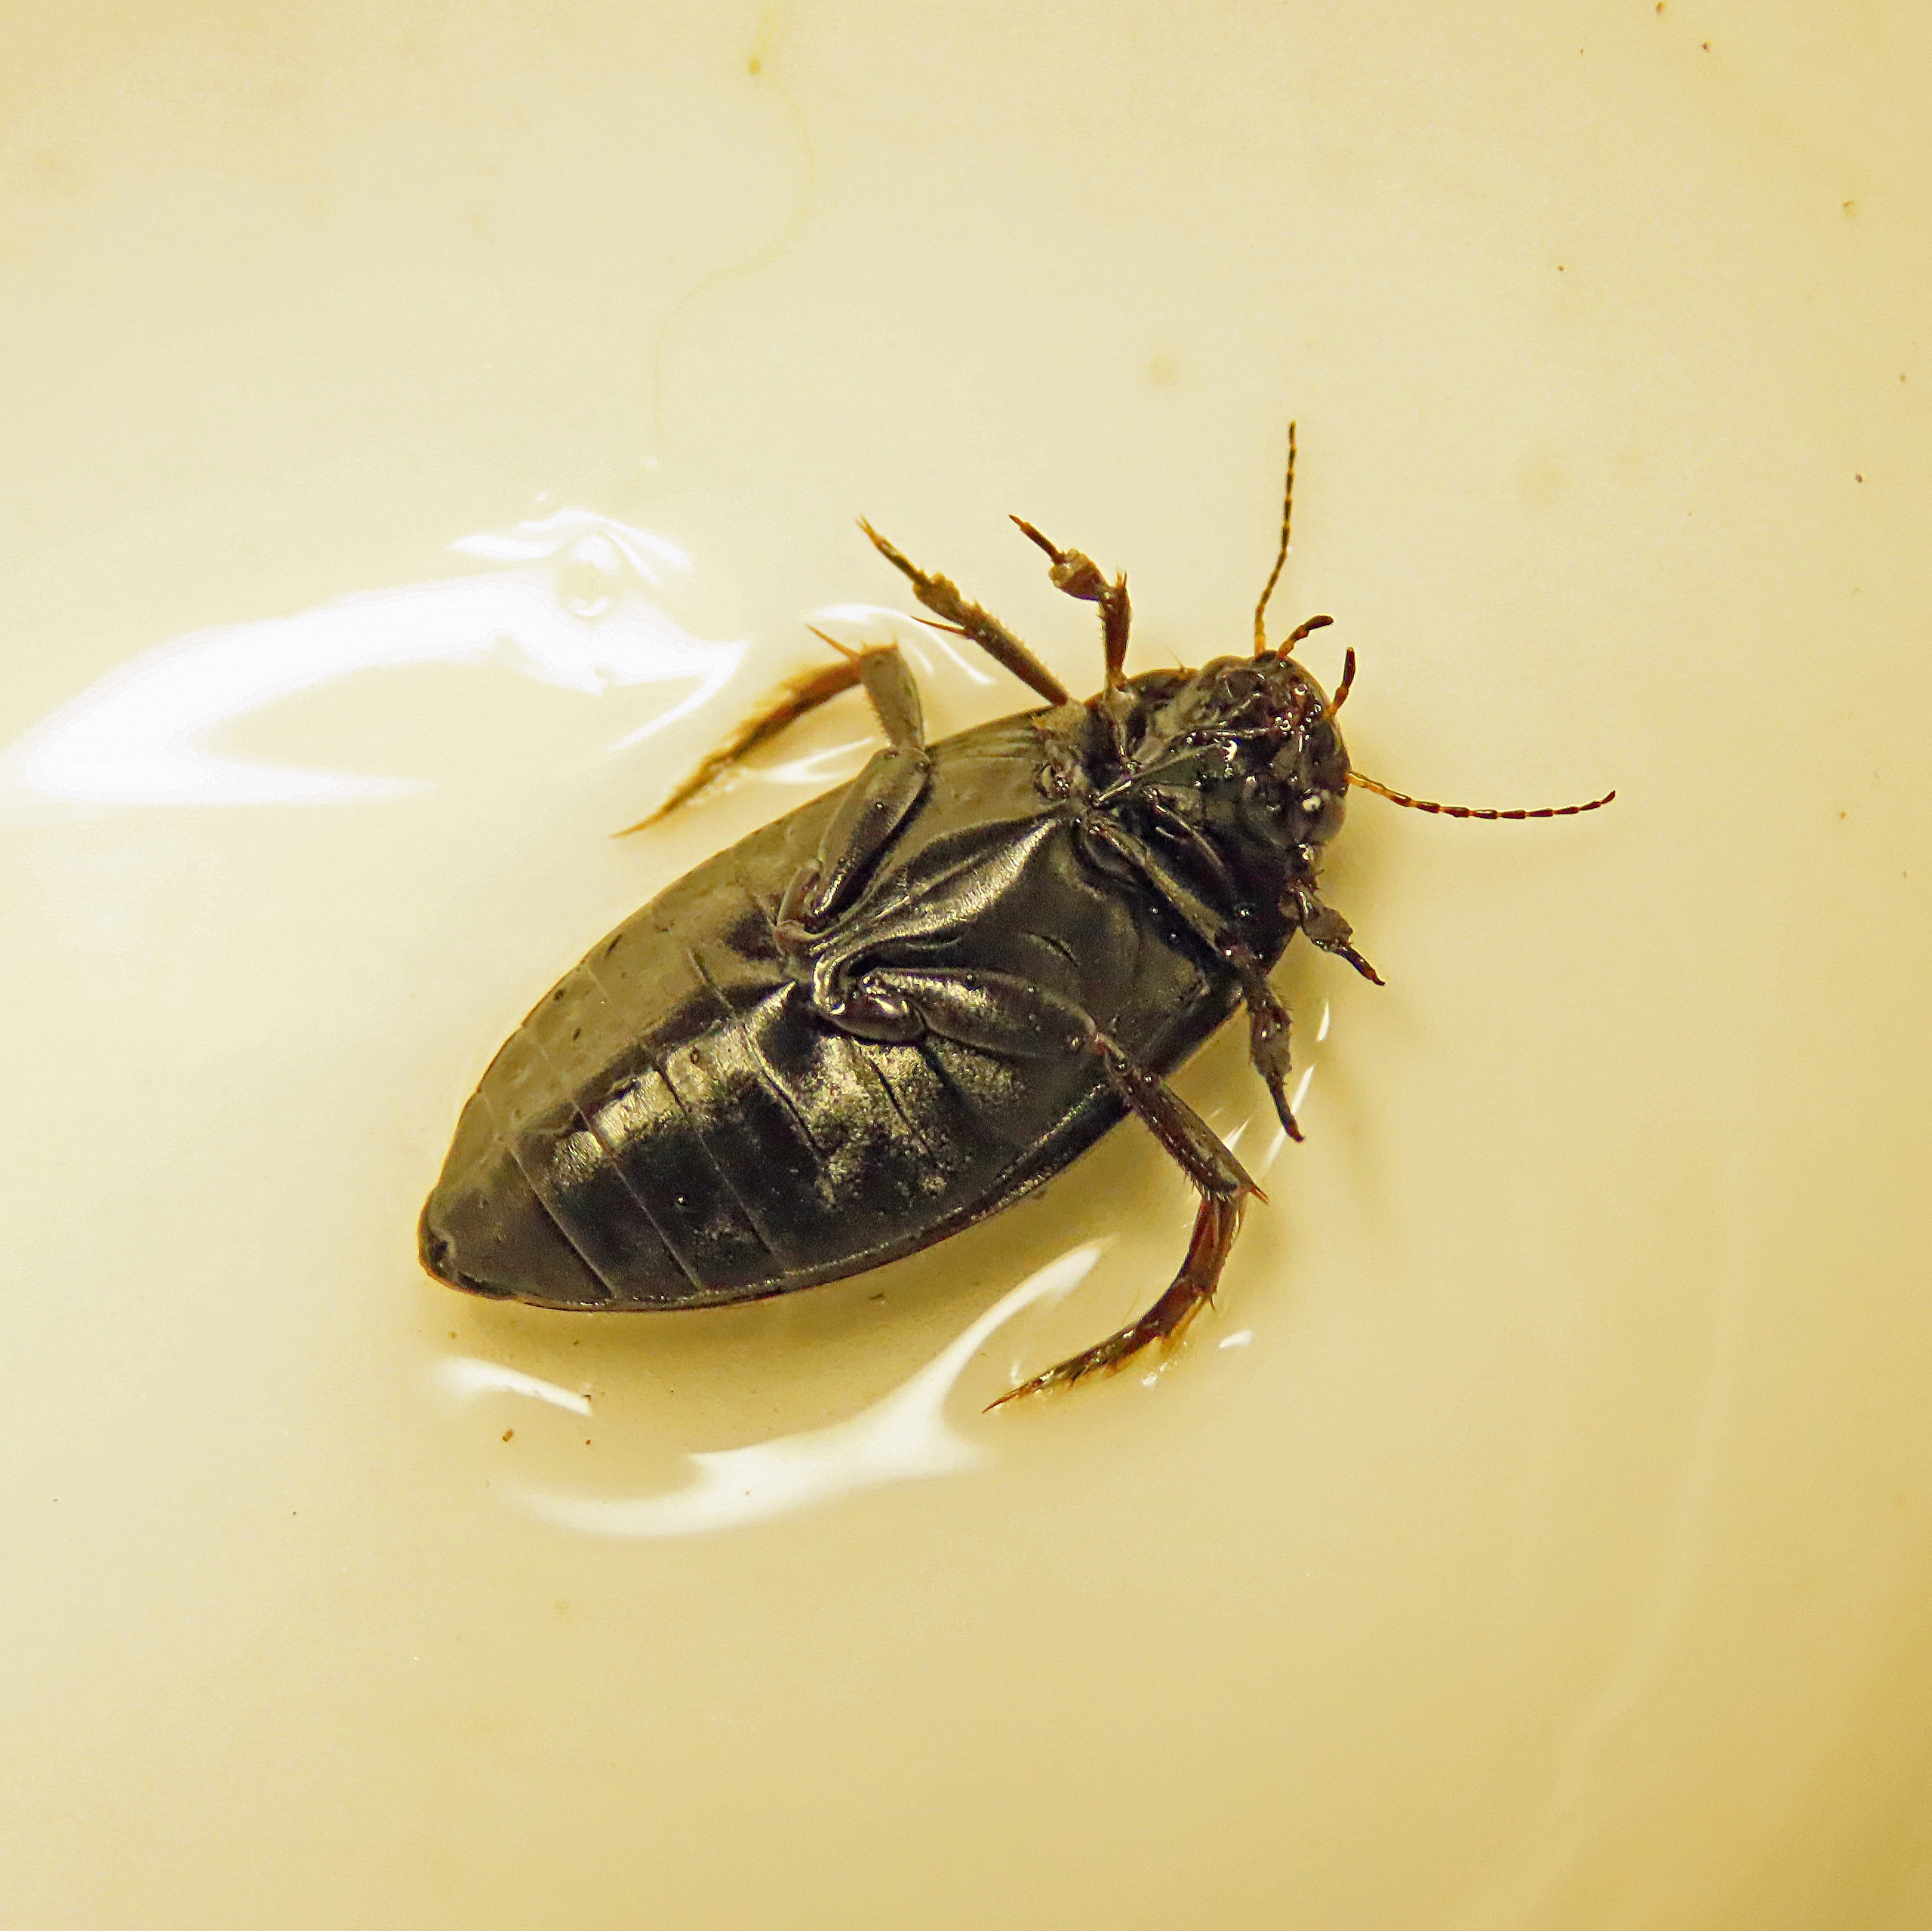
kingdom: Animalia
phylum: Arthropoda
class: Insecta
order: Coleoptera
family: Dytiscidae
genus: Colymbetes
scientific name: Colymbetes paykulli
